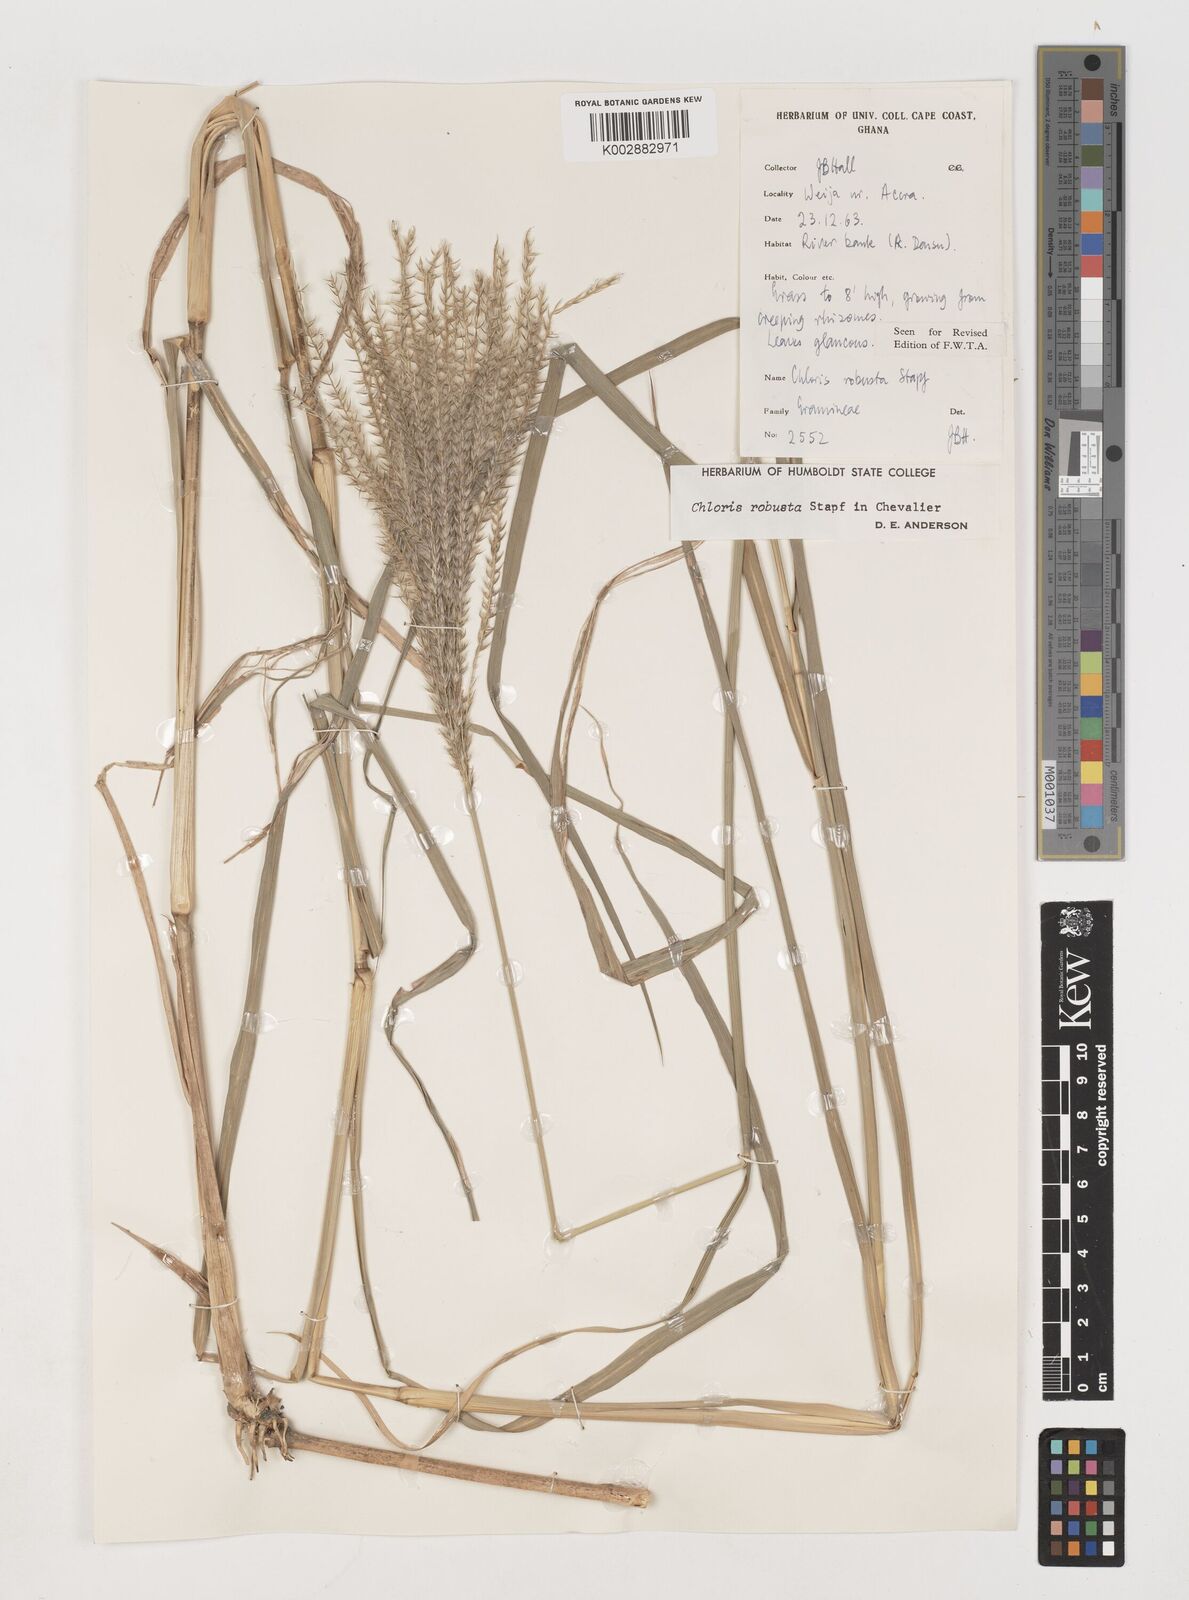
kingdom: Plantae
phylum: Tracheophyta
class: Liliopsida
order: Poales
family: Poaceae
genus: Chloris
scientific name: Chloris robusta
